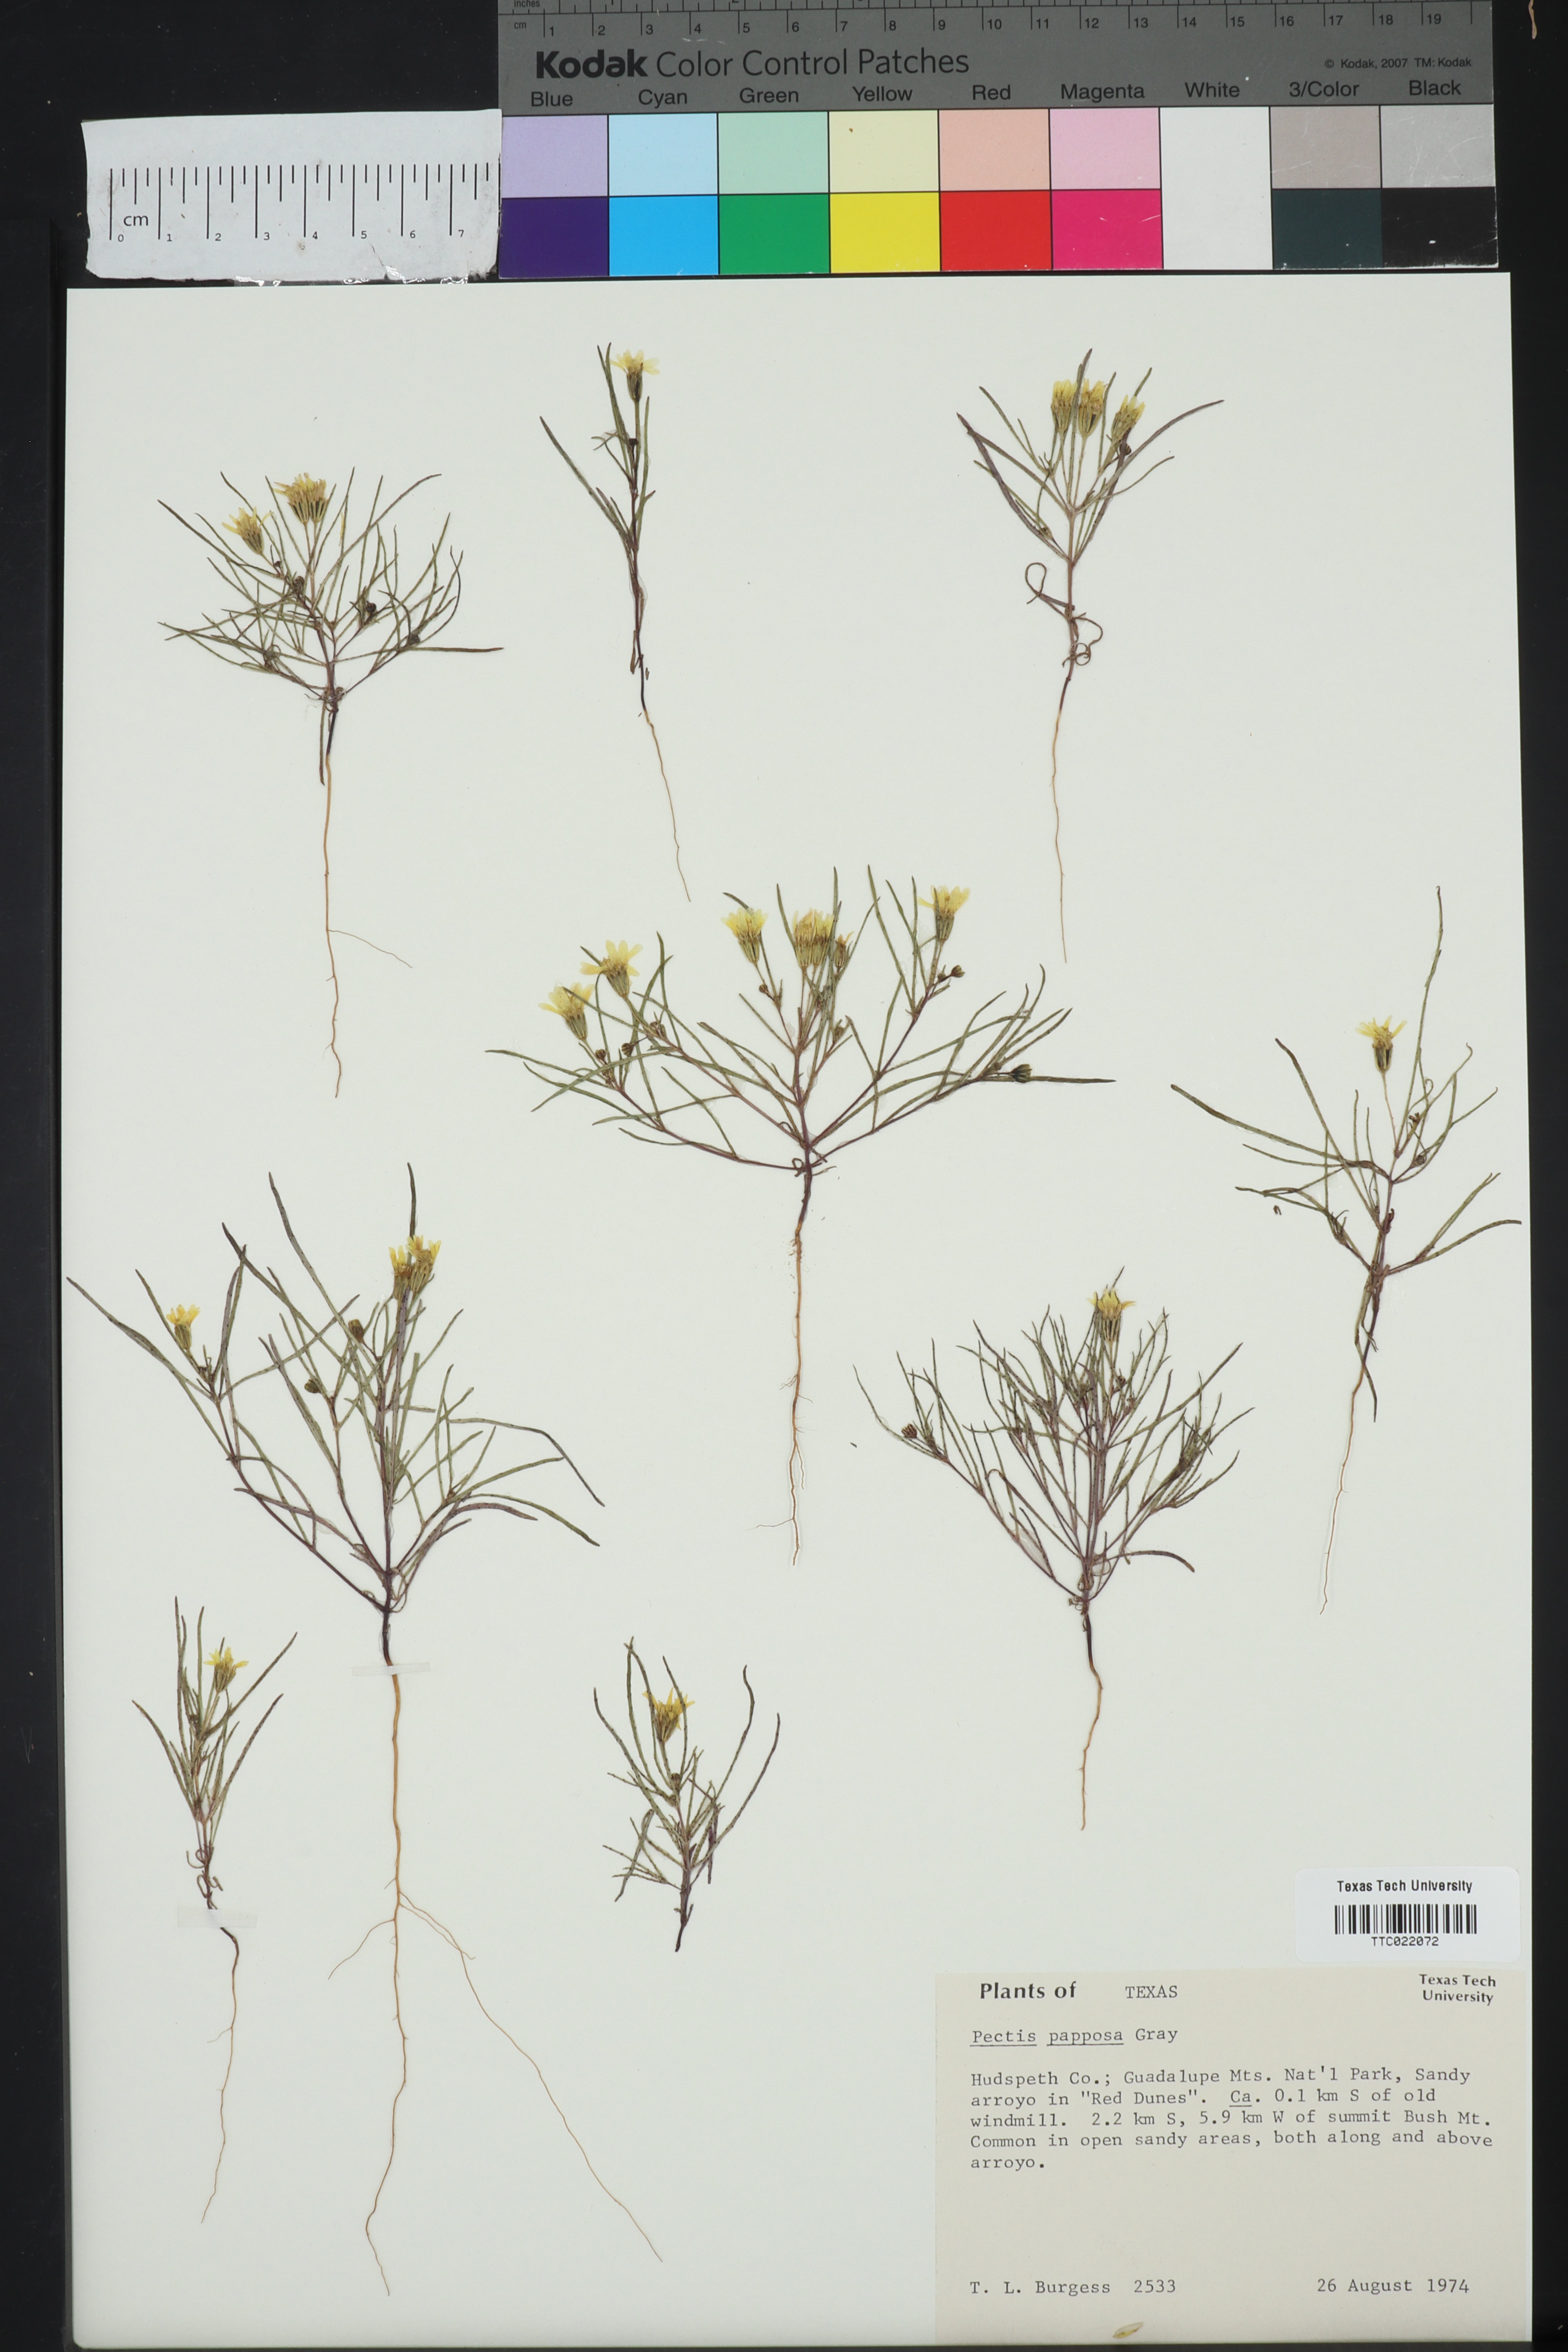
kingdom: Plantae
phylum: Tracheophyta
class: Magnoliopsida
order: Asterales
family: Asteraceae
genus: Pectis
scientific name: Pectis papposa
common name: Many-bristle chinchweed
